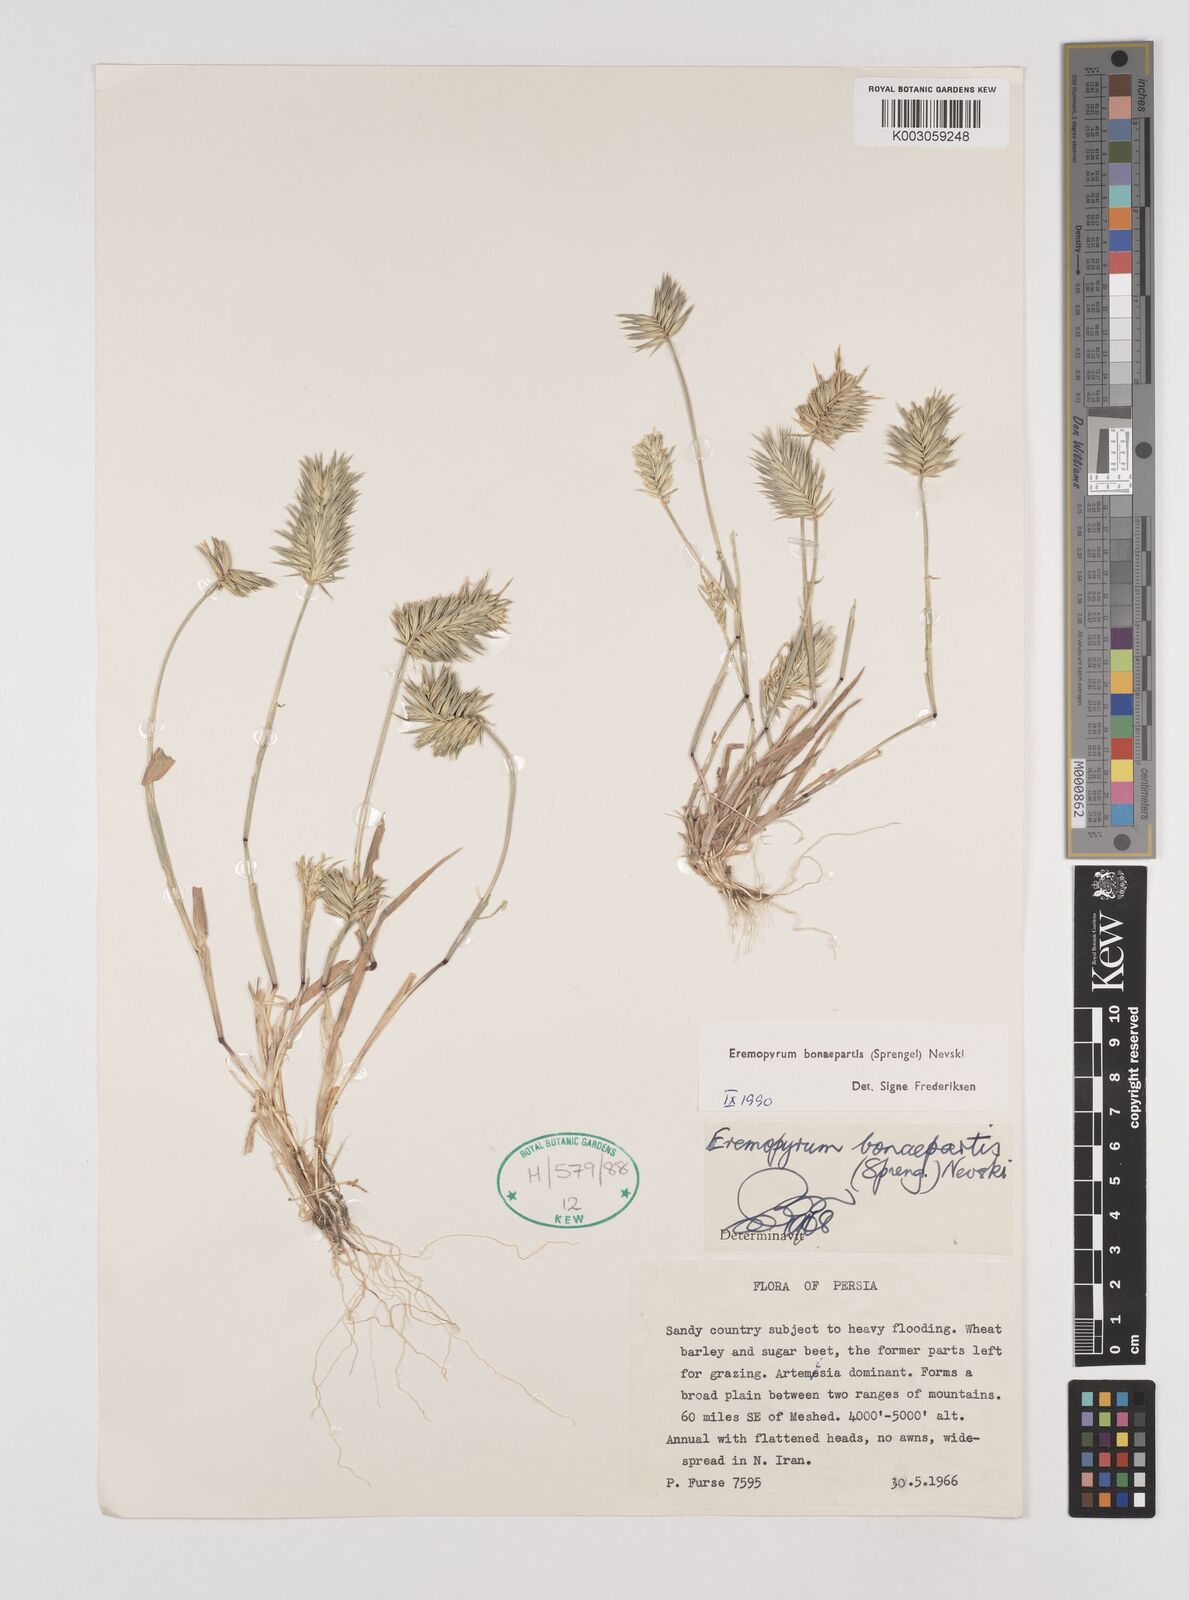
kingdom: Plantae
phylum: Tracheophyta
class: Liliopsida
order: Poales
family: Poaceae
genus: Eremopyrum
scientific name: Eremopyrum bonaepartis
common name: Tapertip false wheatgrass
